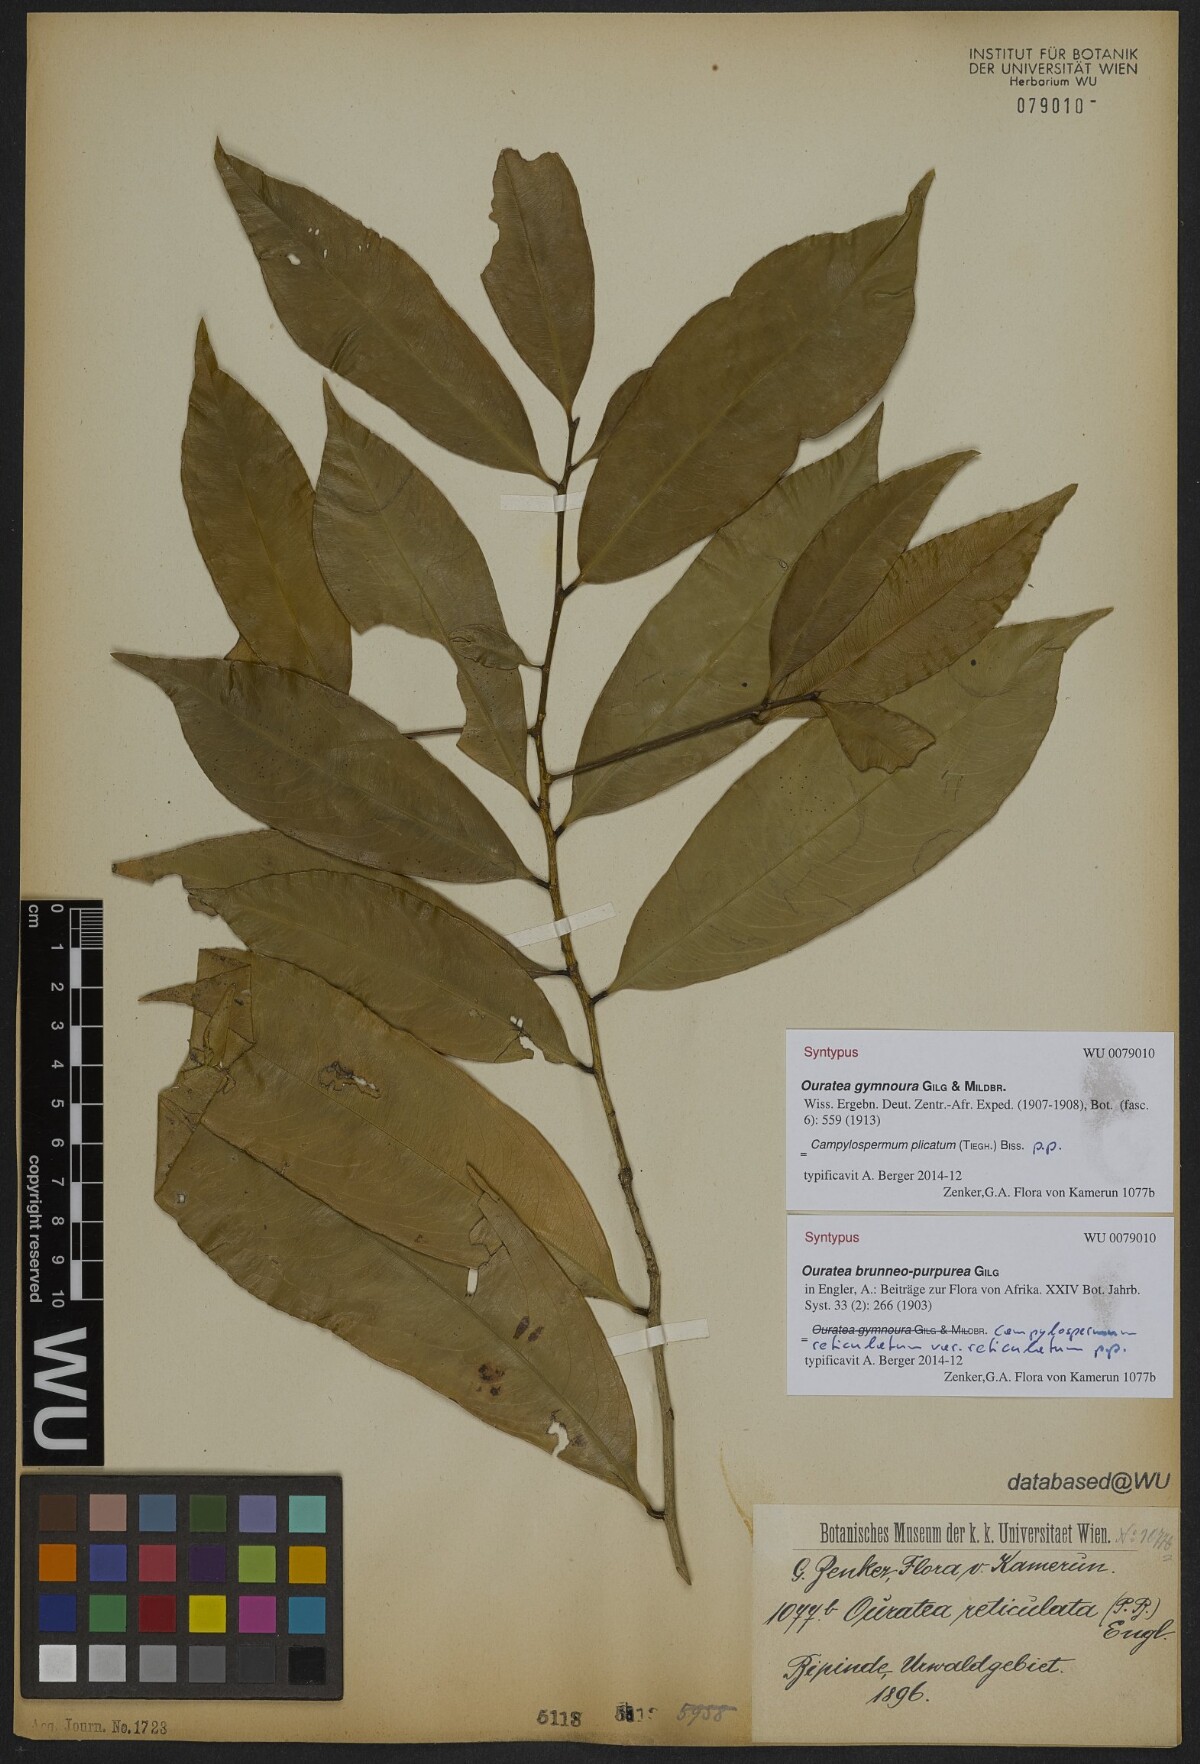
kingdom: Plantae
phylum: Tracheophyta
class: Magnoliopsida
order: Malpighiales
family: Ochnaceae
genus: Campylospermum
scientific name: Campylospermum strictum
